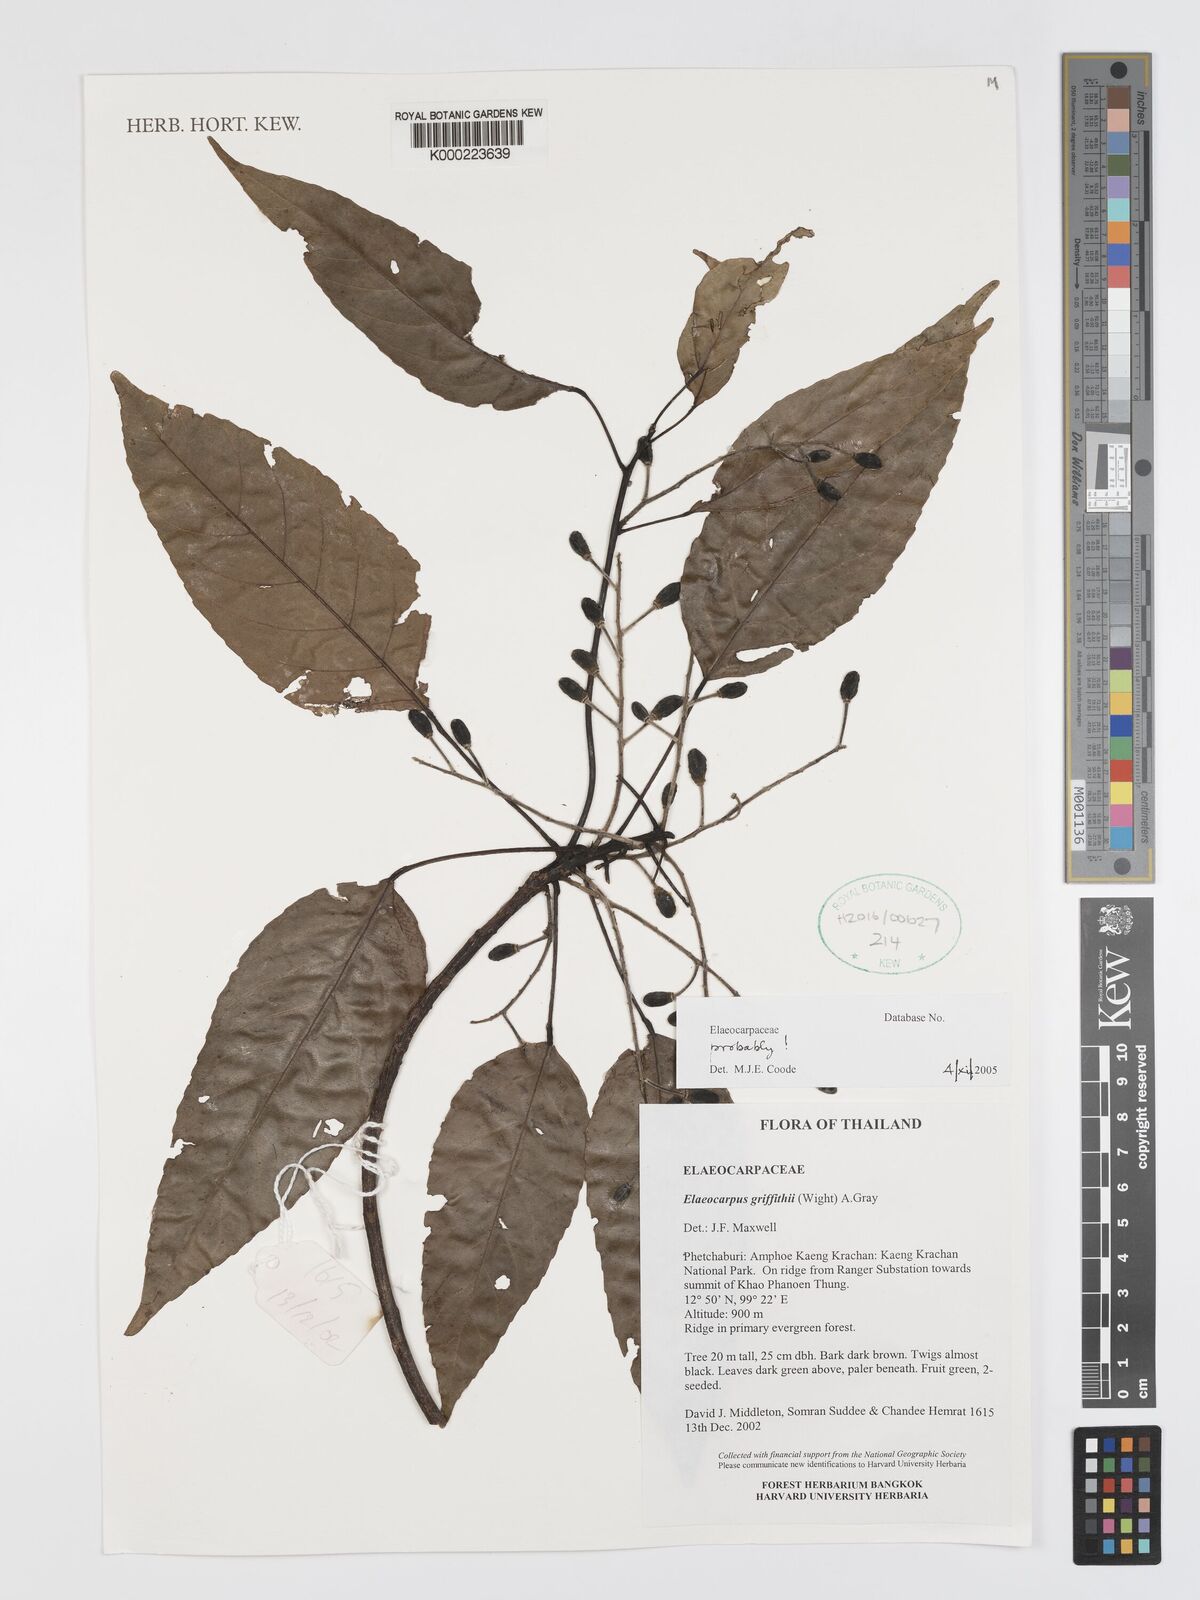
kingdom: Plantae
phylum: Tracheophyta
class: Magnoliopsida
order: Oxalidales
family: Elaeocarpaceae
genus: Elaeocarpus
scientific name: Elaeocarpus griffithii
